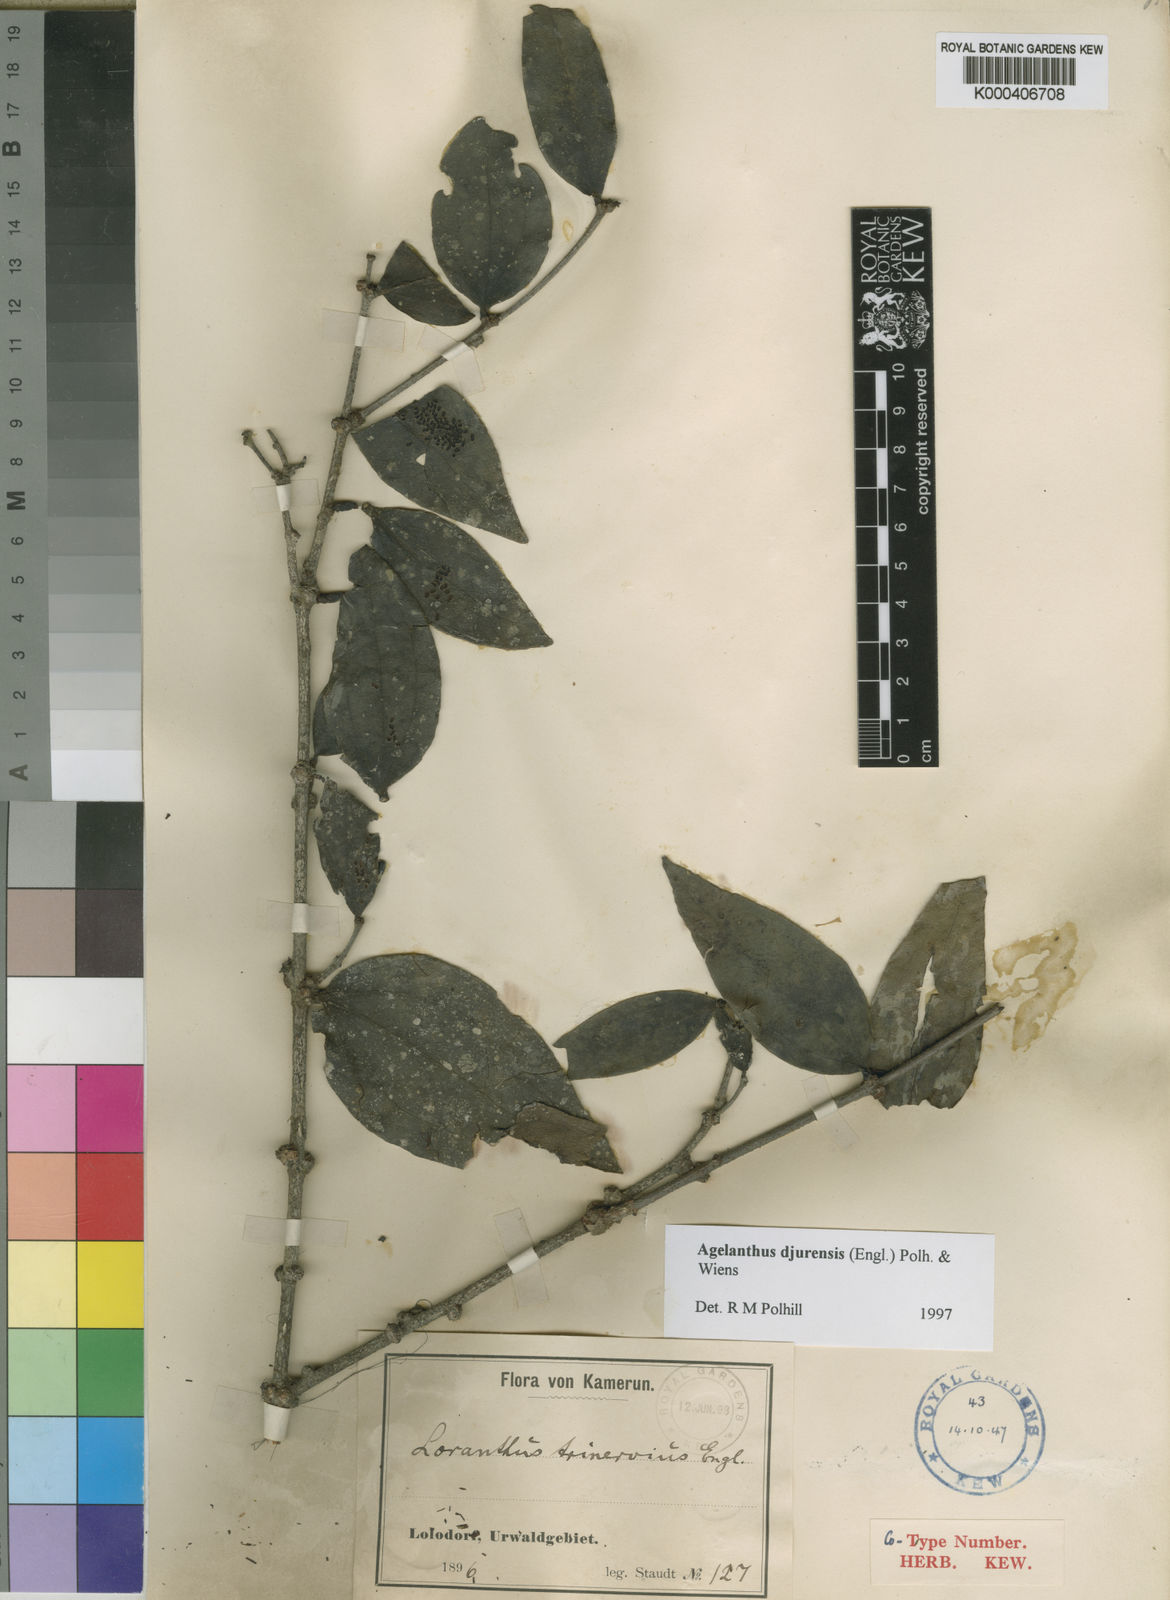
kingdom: Plantae
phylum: Tracheophyta
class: Magnoliopsida
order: Santalales
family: Loranthaceae
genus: Agelanthus
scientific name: Agelanthus djurensis
